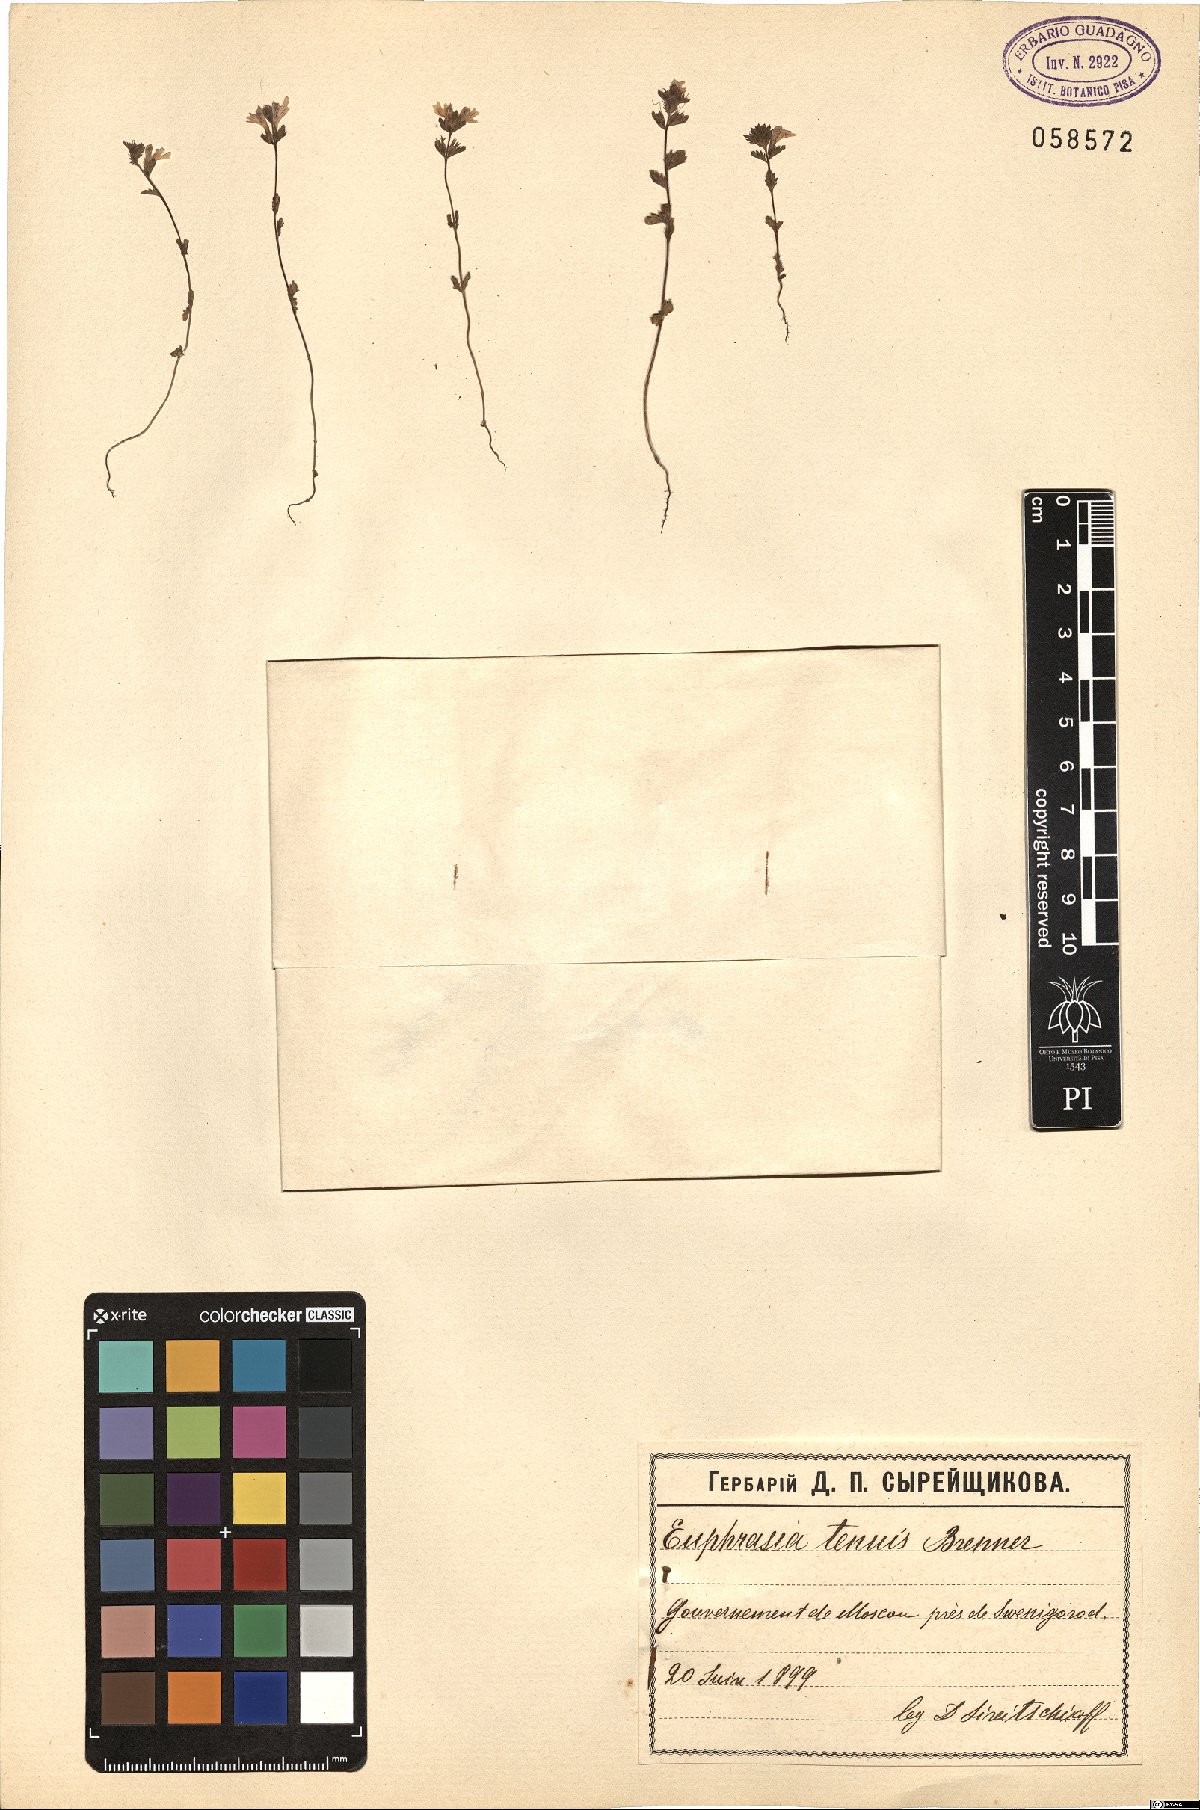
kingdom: Plantae
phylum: Tracheophyta
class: Magnoliopsida
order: Lamiales
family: Scrophulariaceae
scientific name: Scrophulariaceae
